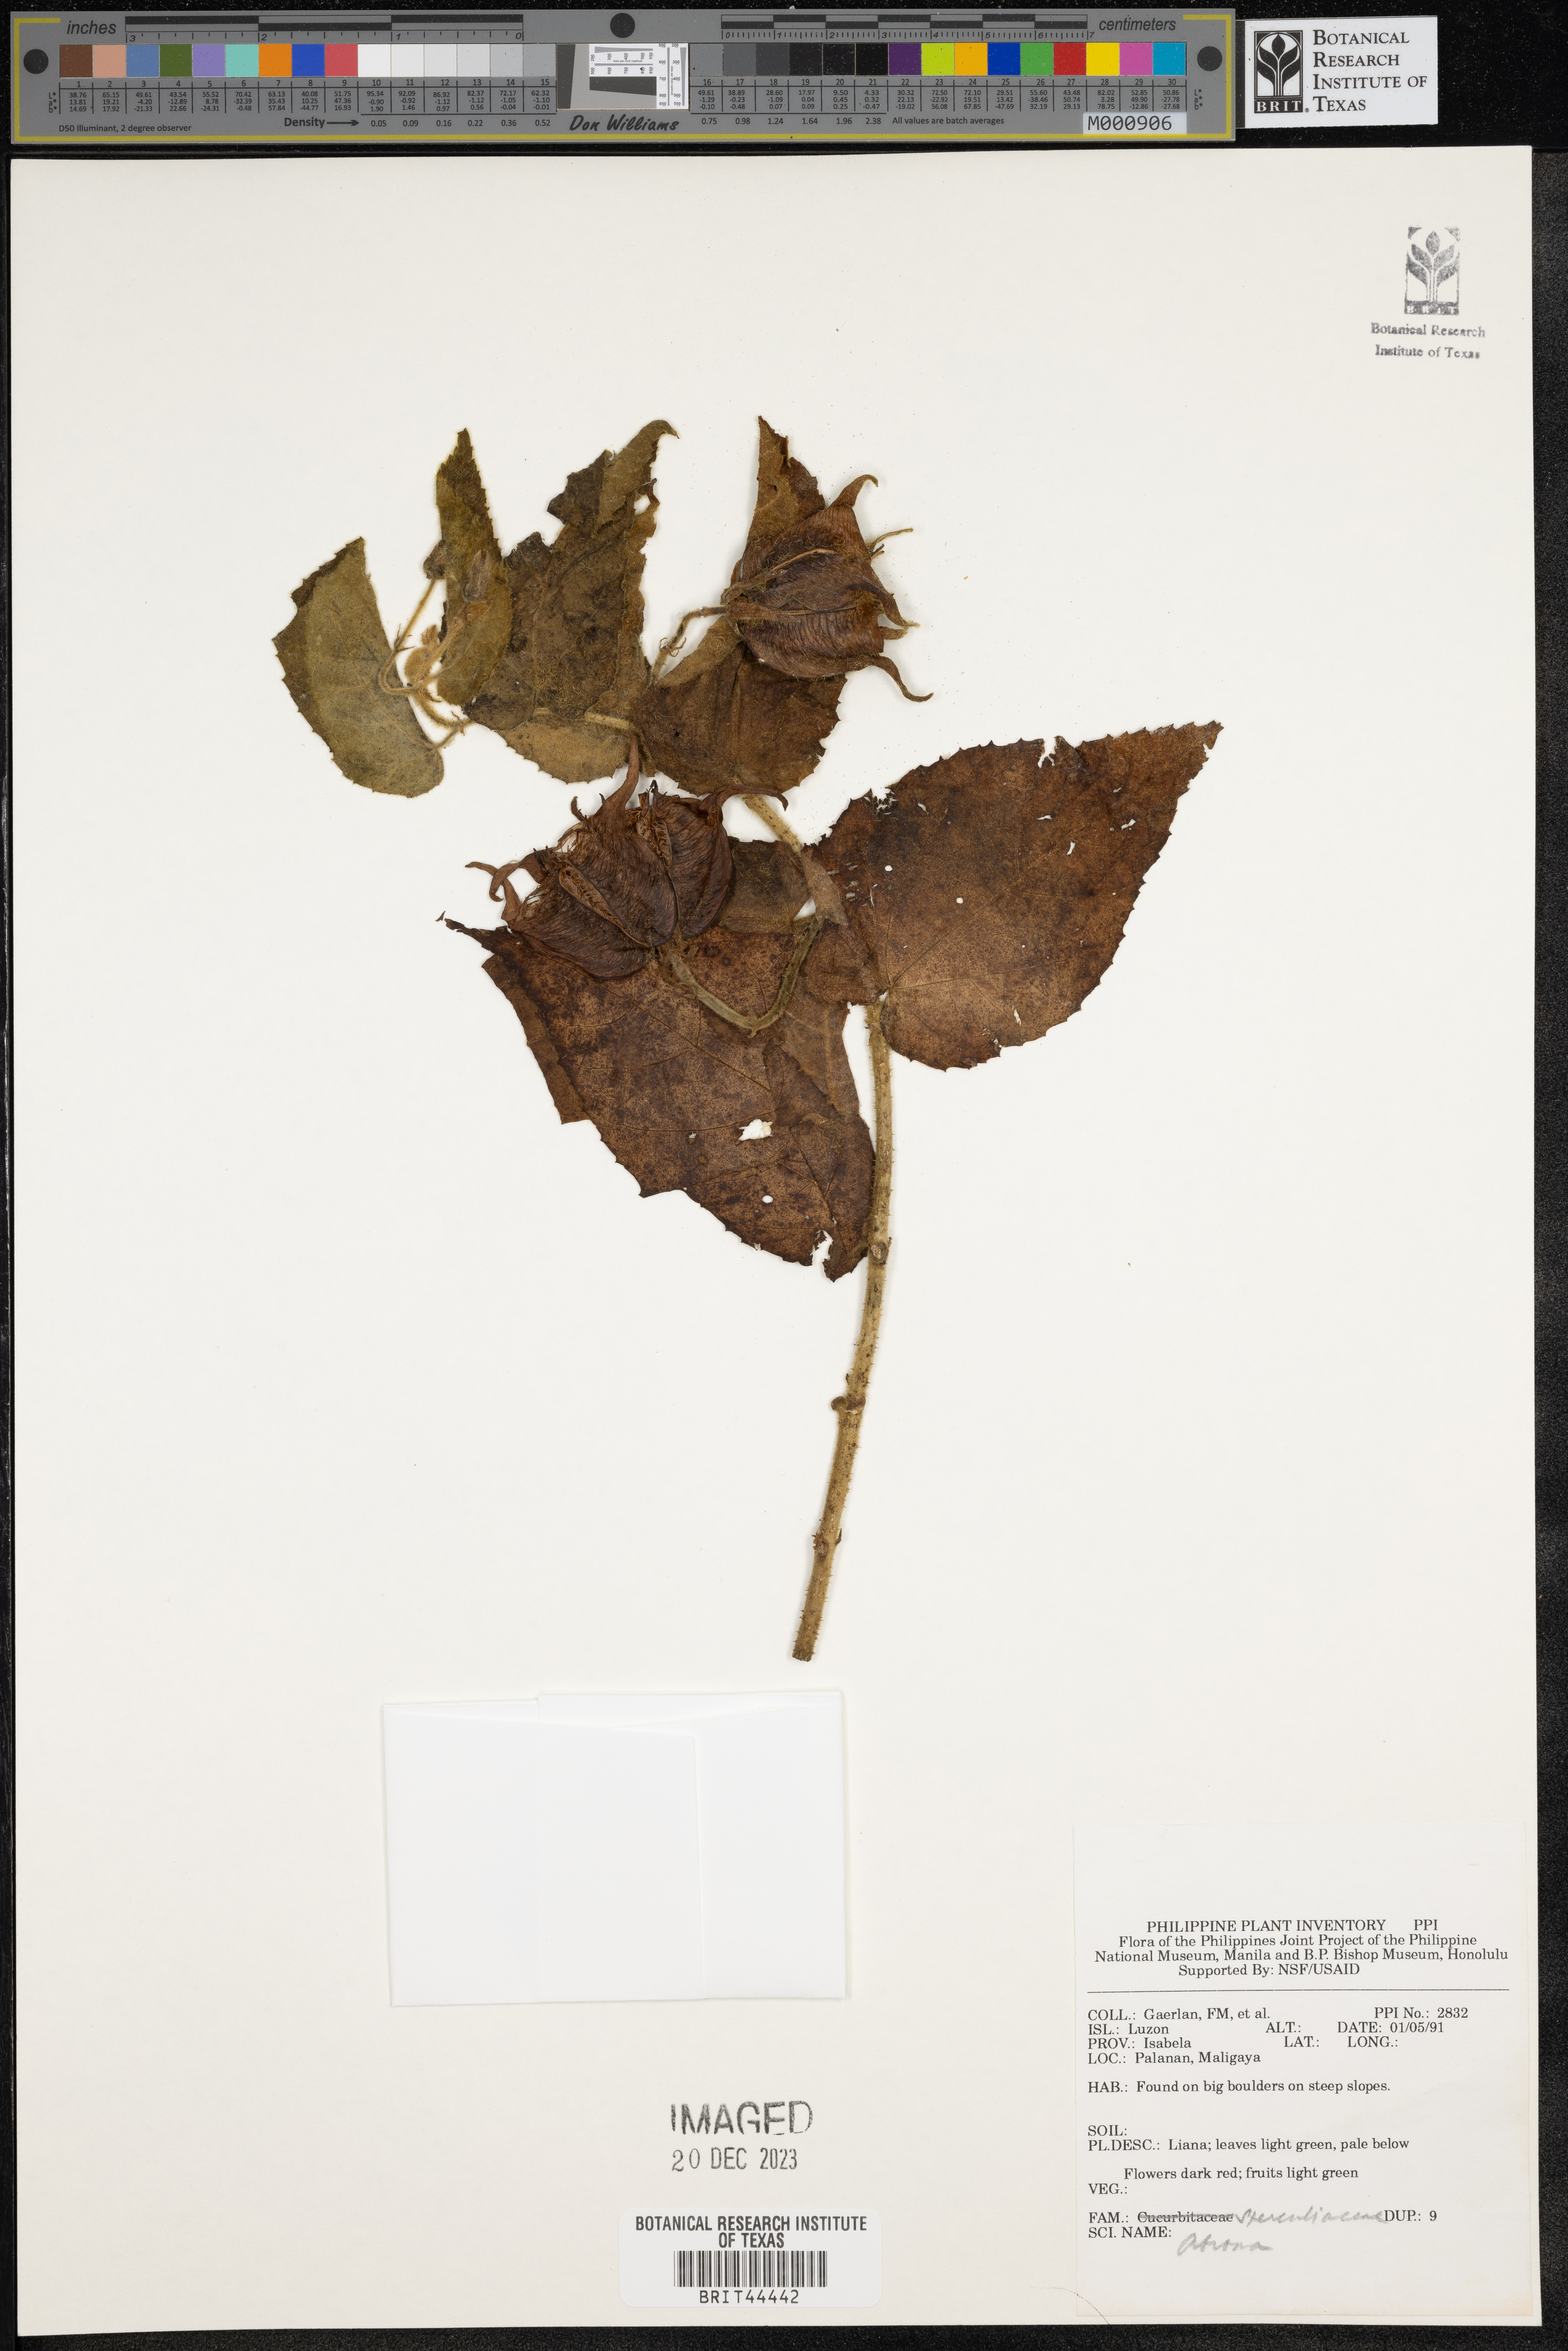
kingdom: Plantae
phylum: Tracheophyta
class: Magnoliopsida
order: Malvales
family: Malvaceae
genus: Abroma
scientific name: Abroma
